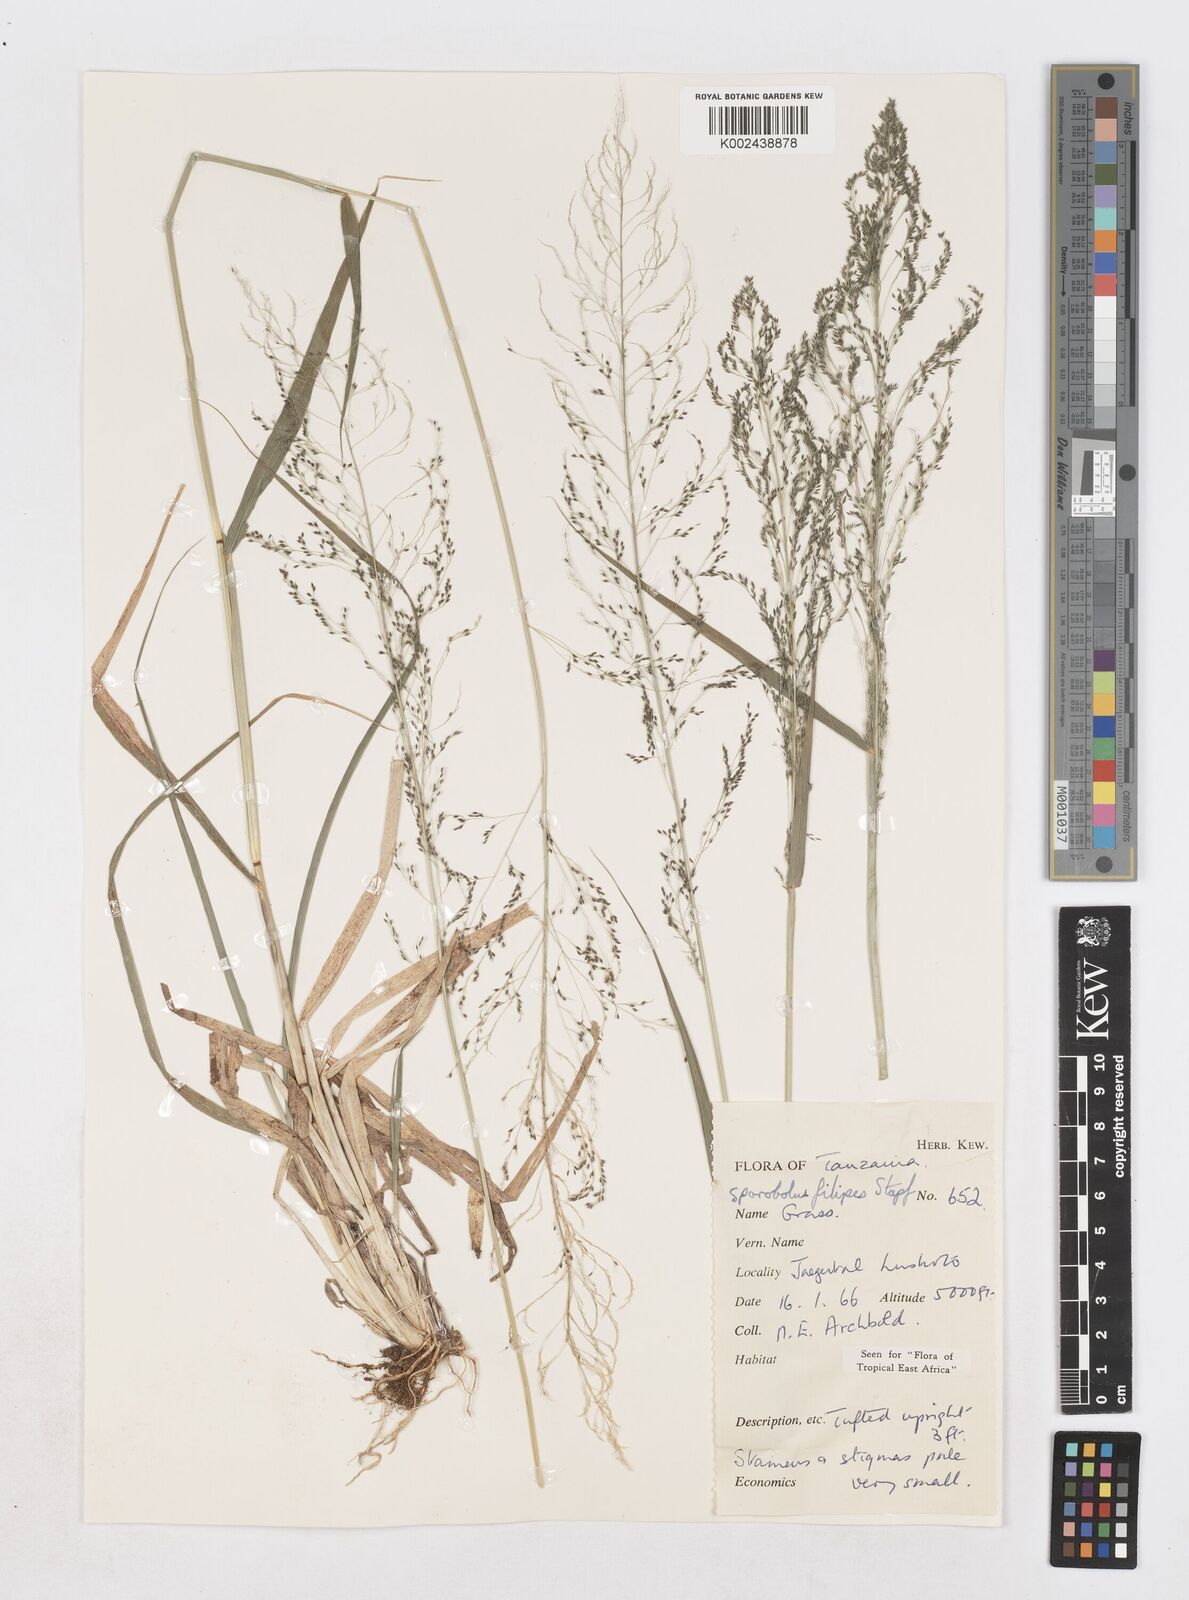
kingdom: Plantae
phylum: Tracheophyta
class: Liliopsida
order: Poales
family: Poaceae
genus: Sporobolus
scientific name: Sporobolus agrostoides
